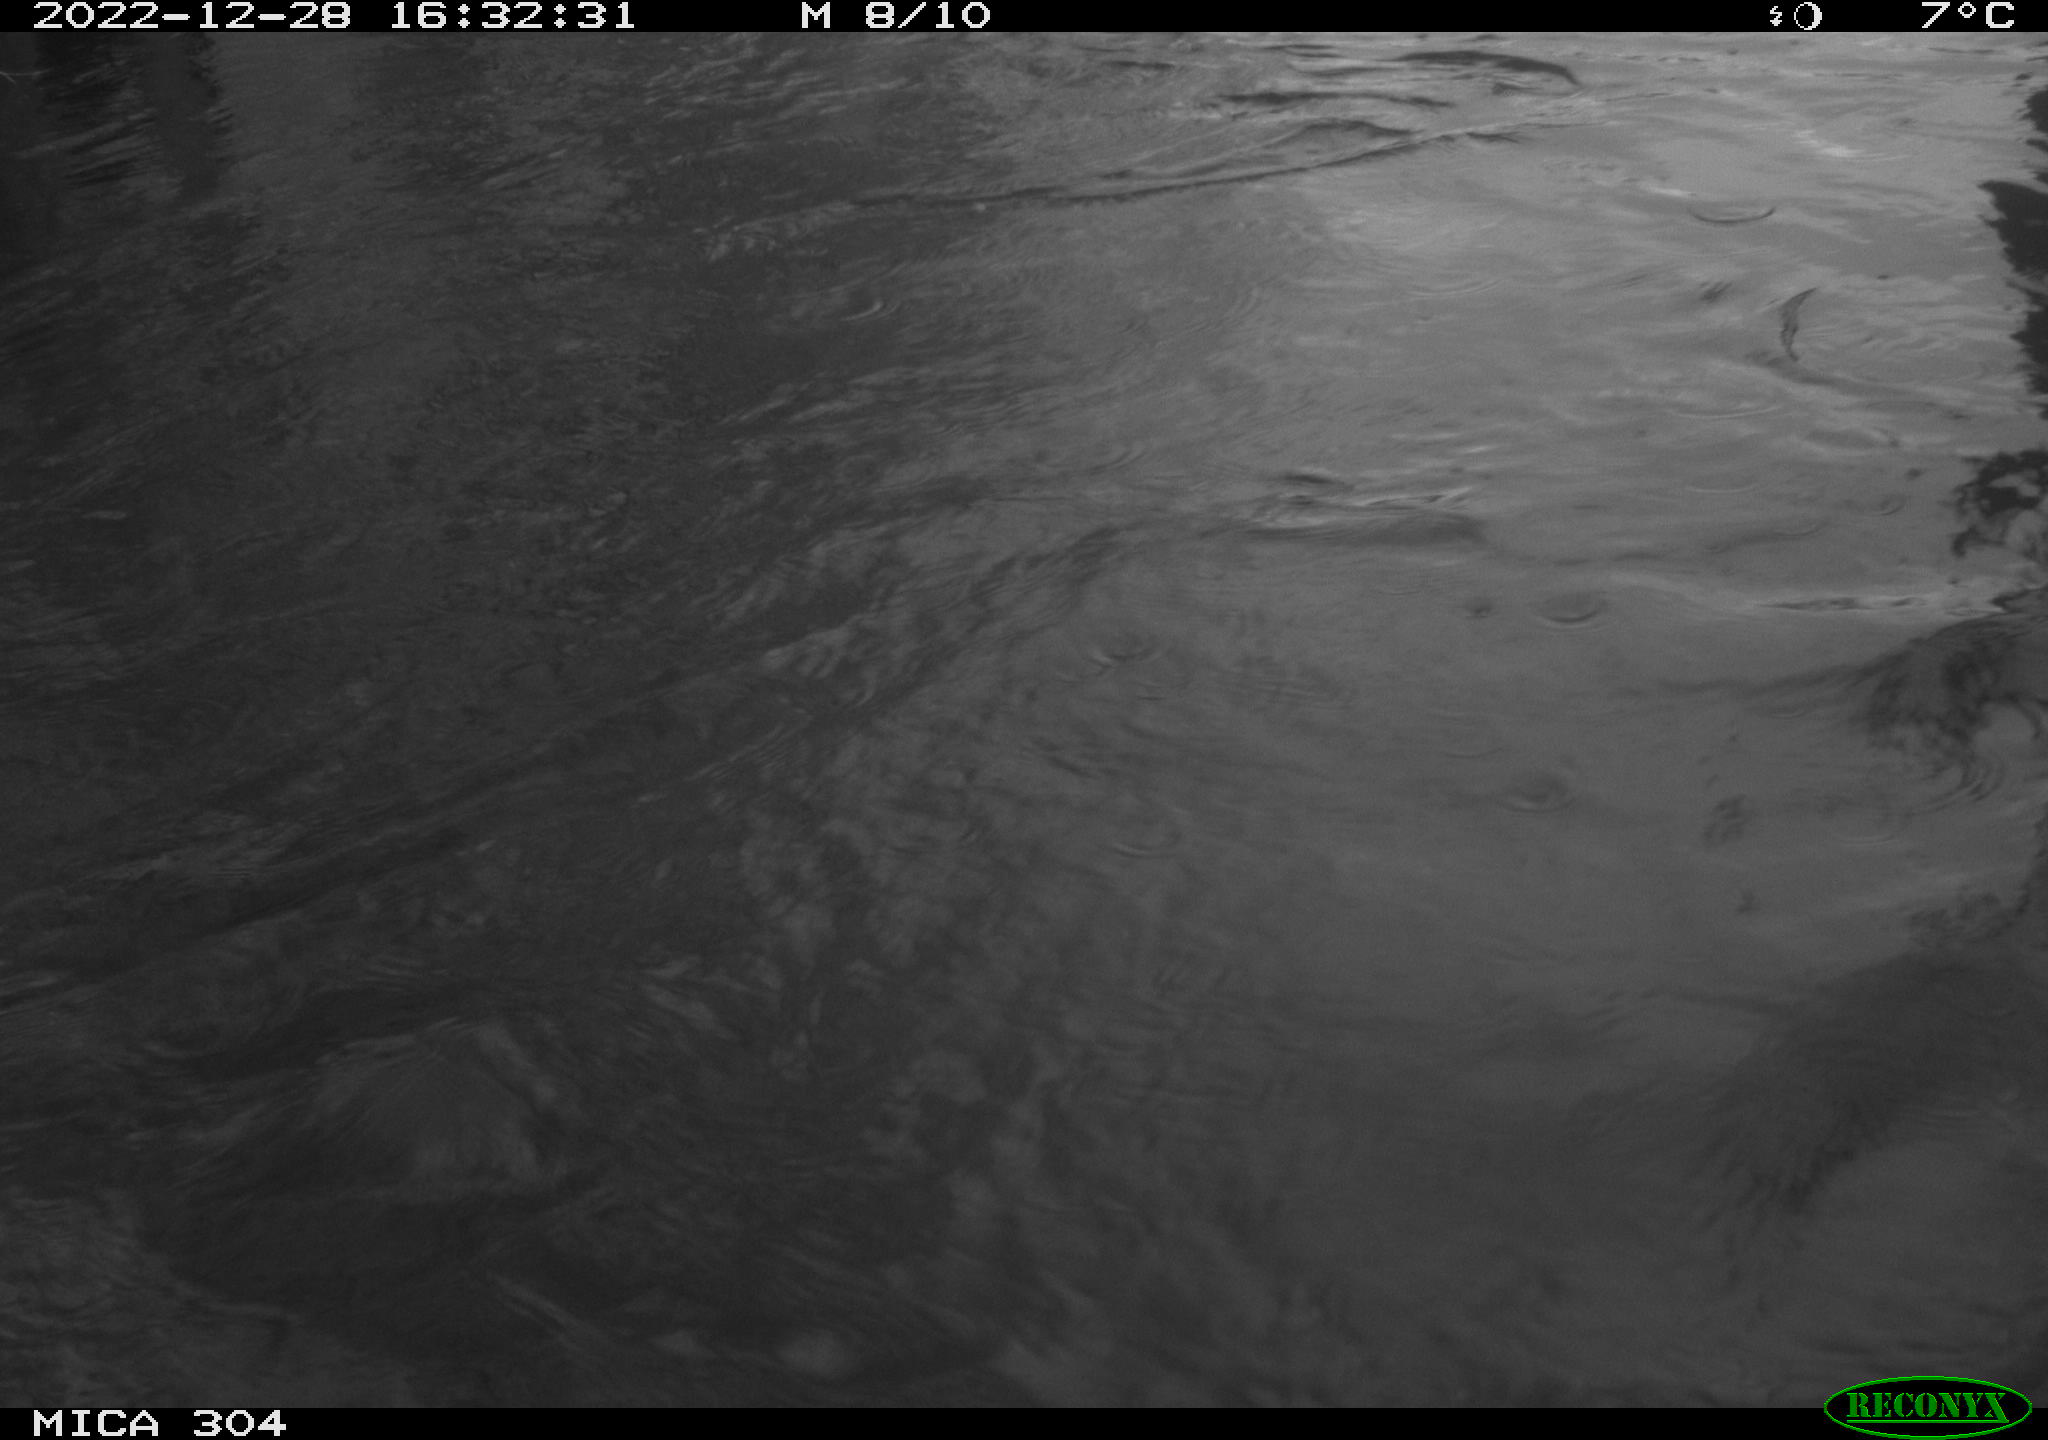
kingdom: Animalia
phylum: Chordata
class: Aves
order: Anseriformes
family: Anatidae
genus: Anas
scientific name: Anas
